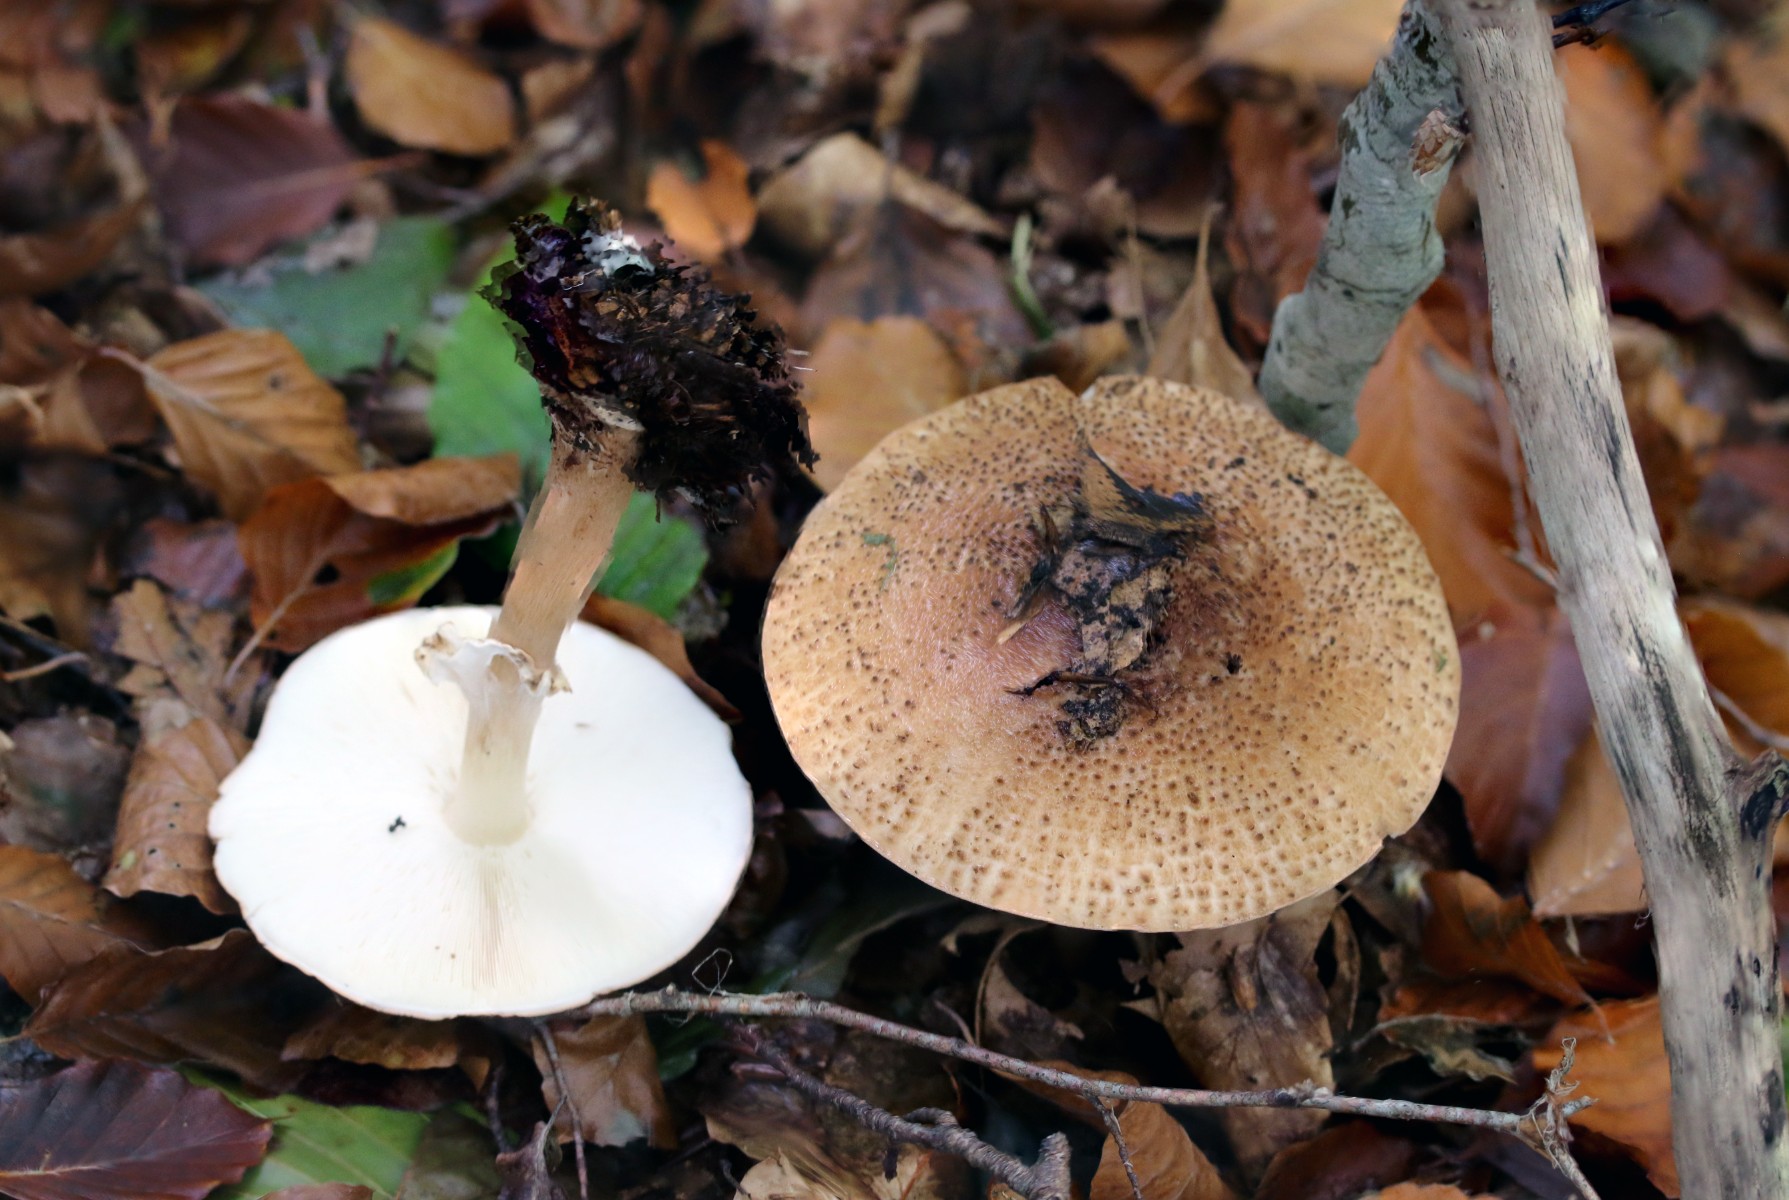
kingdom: Fungi
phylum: Basidiomycota
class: Agaricomycetes
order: Agaricales
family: Agaricaceae
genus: Echinoderma
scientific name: Echinoderma asperum
